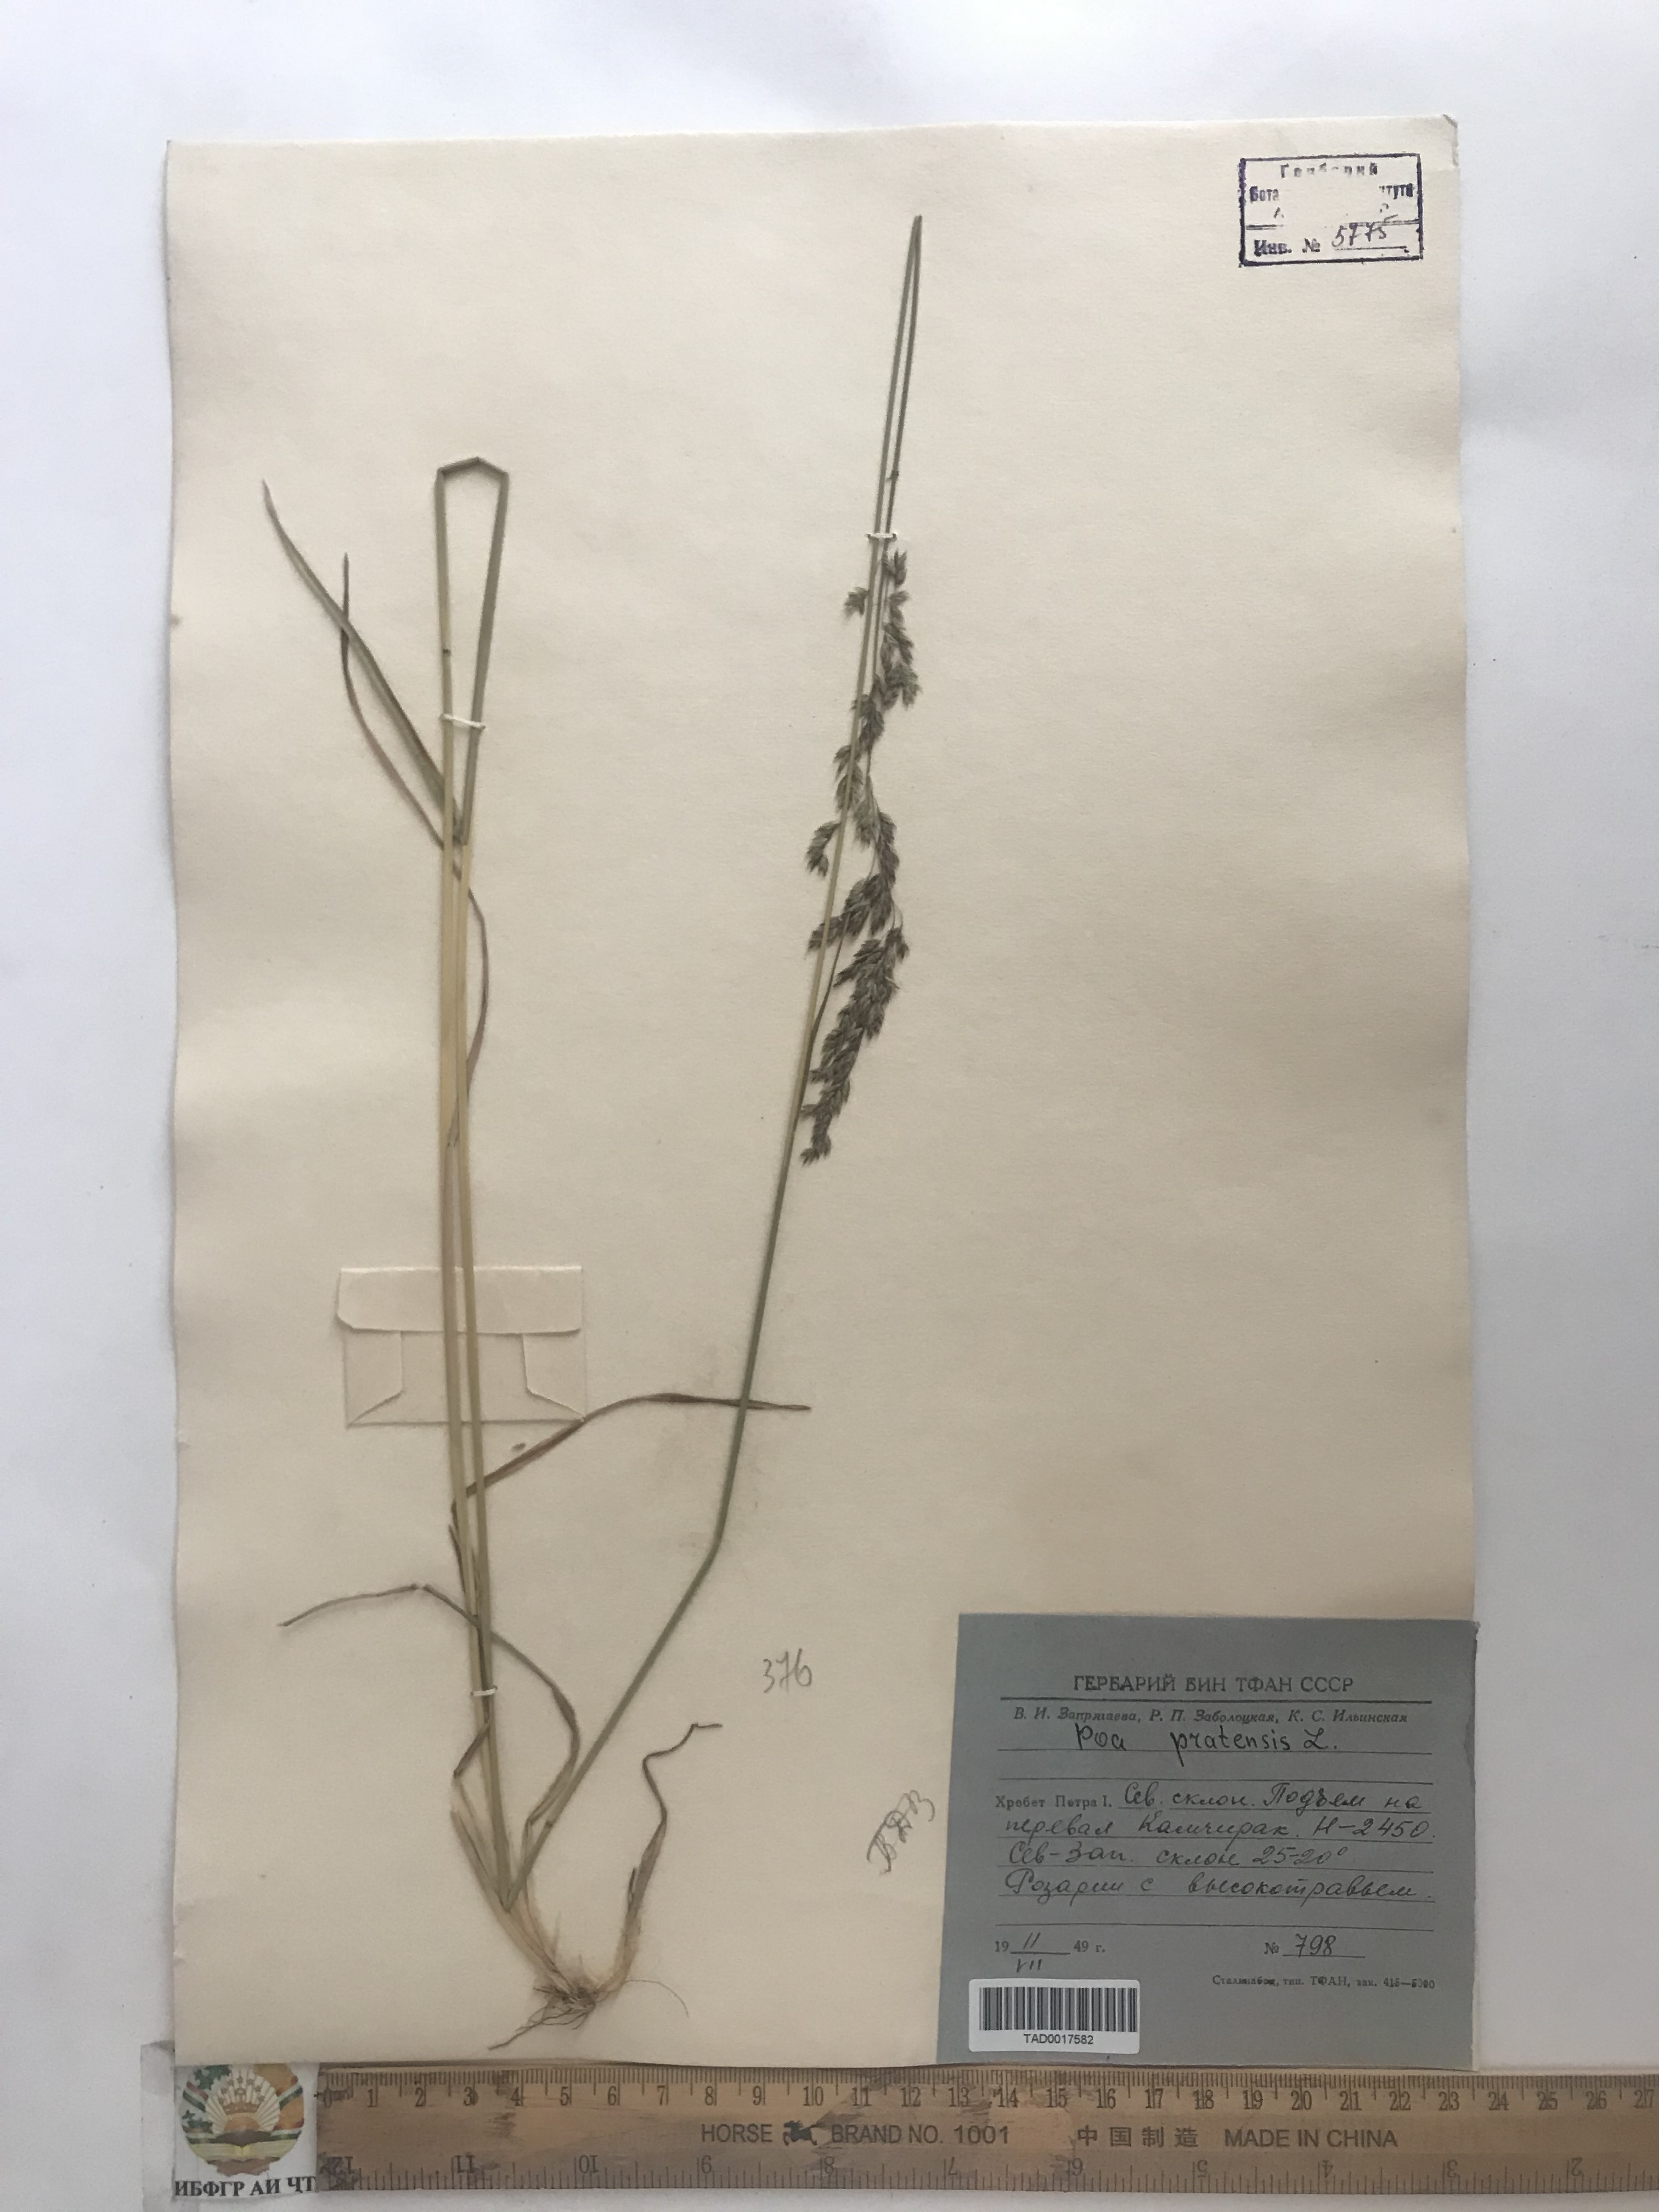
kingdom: Plantae
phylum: Tracheophyta
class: Liliopsida
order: Poales
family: Poaceae
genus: Poa
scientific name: Poa pratensis
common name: Kentucky bluegrass
